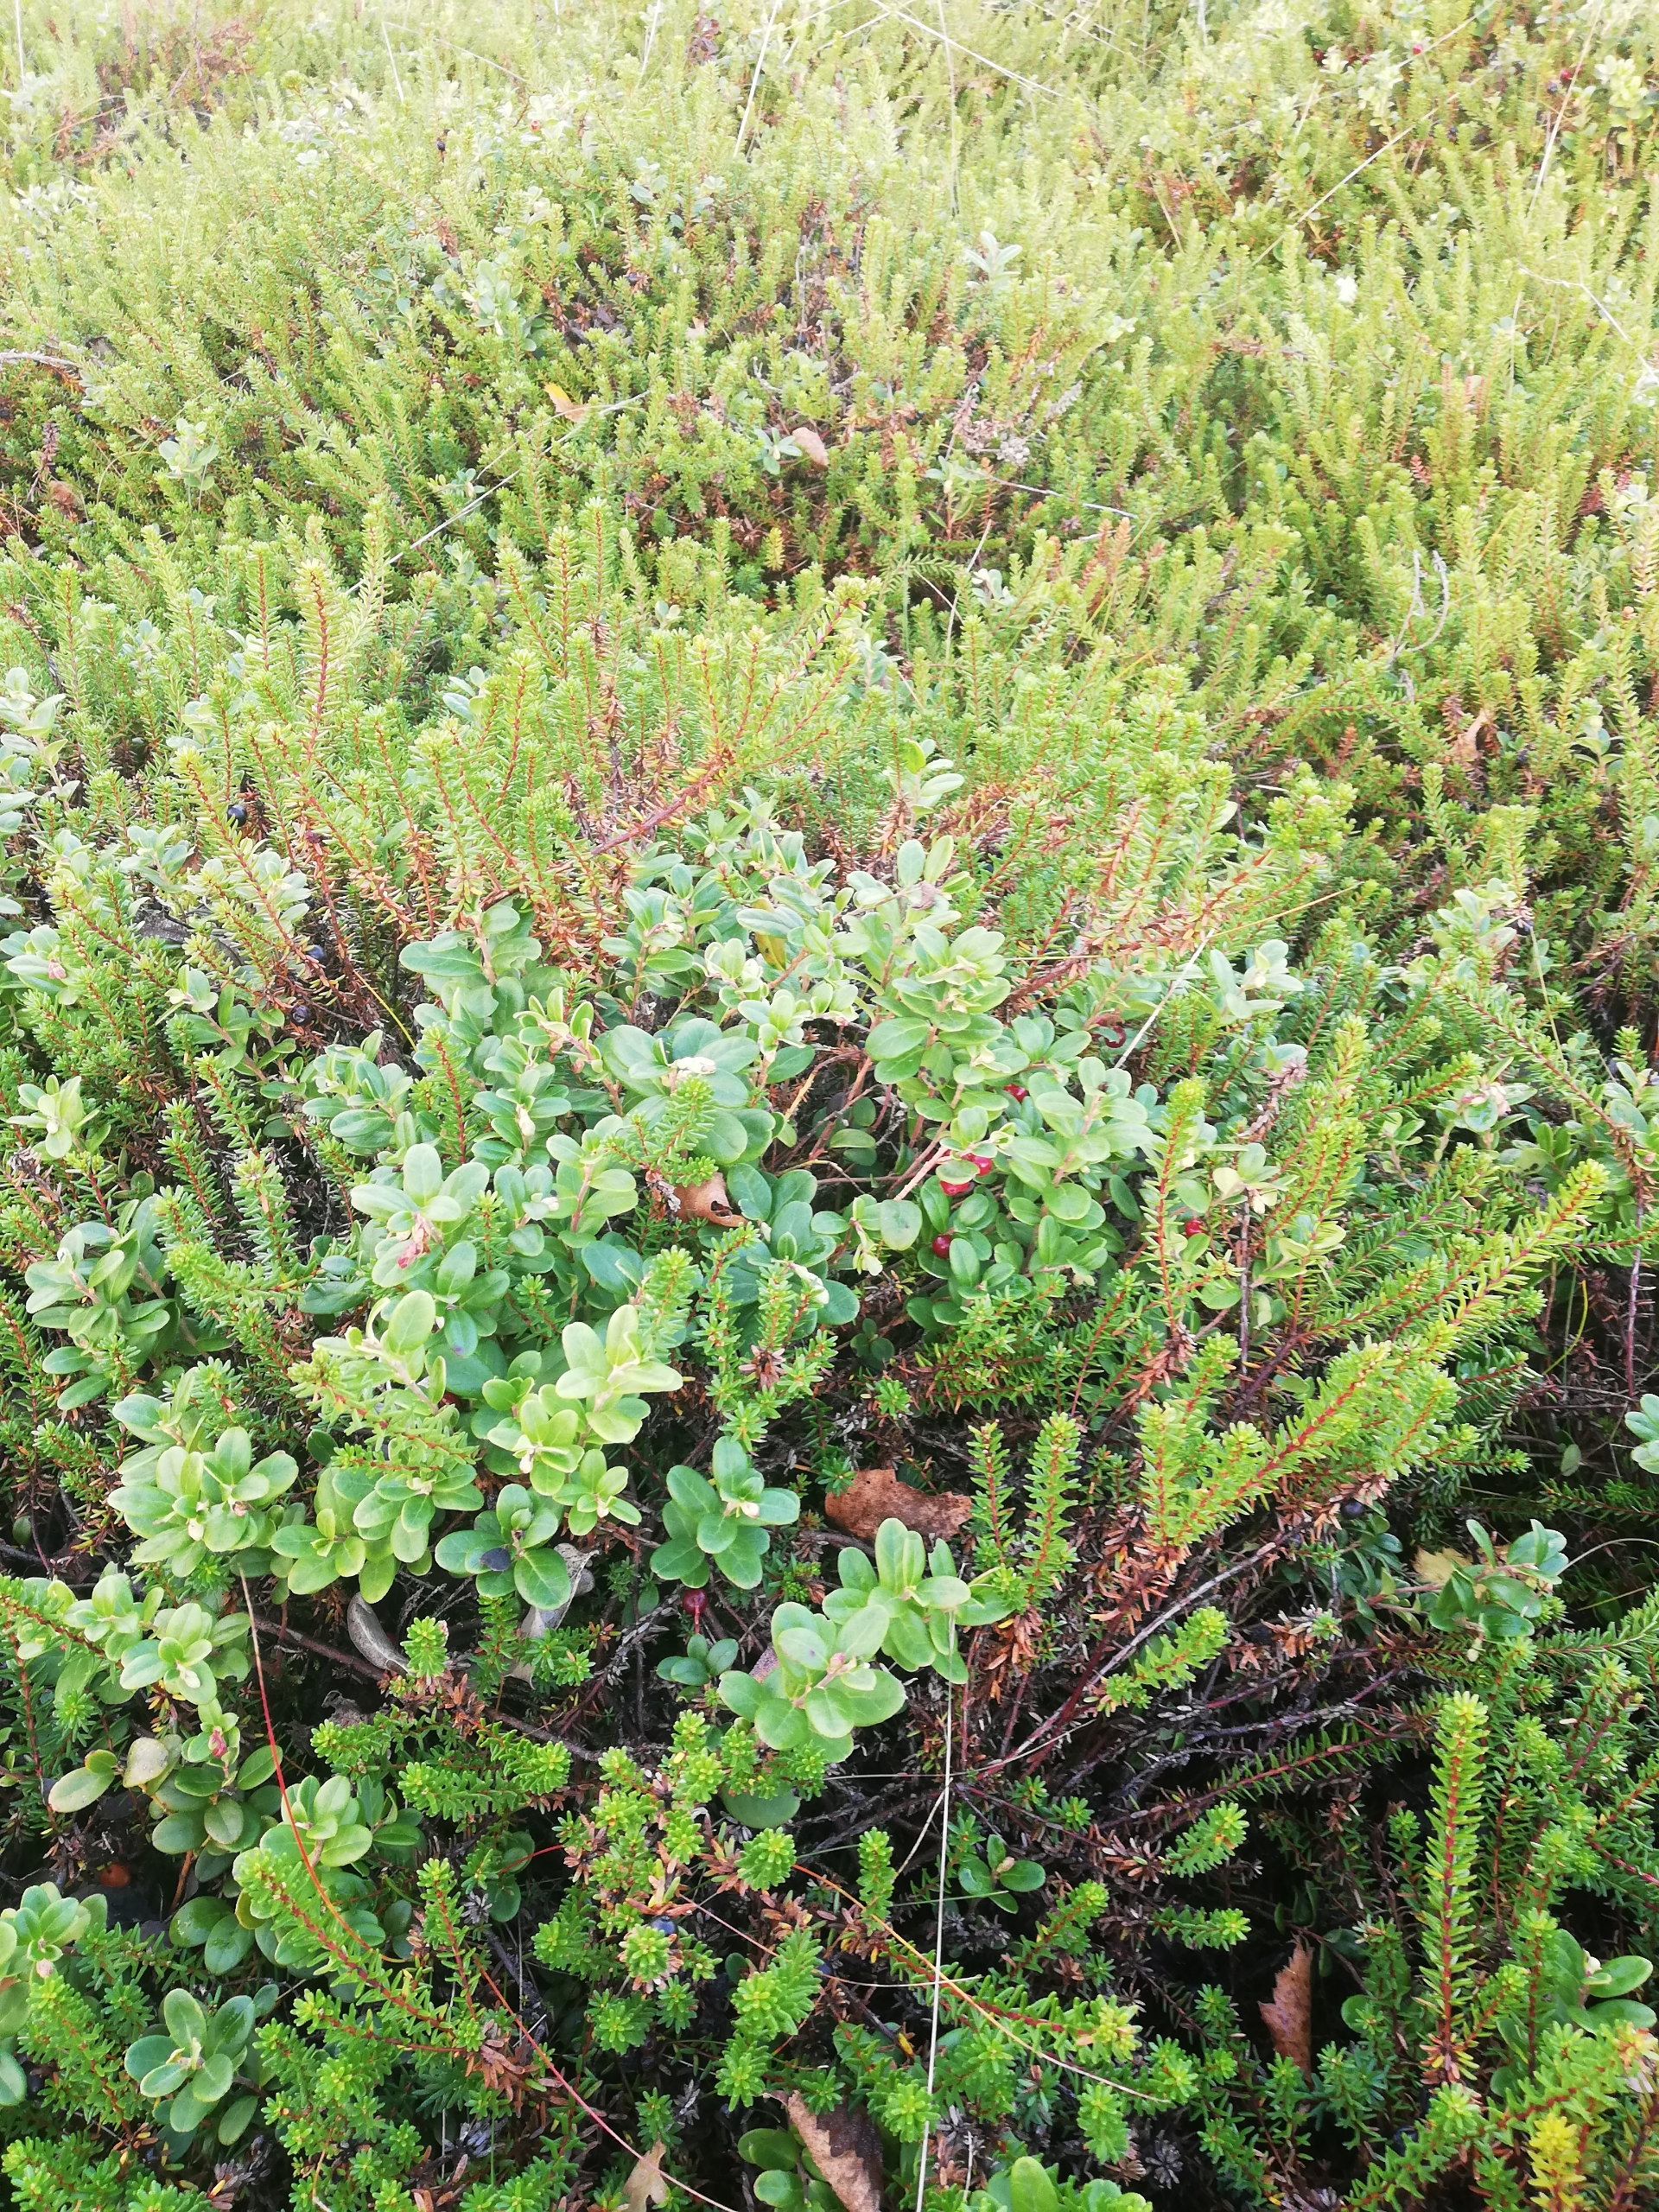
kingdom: Plantae
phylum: Tracheophyta
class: Magnoliopsida
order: Ericales
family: Ericaceae
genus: Vaccinium
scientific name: Vaccinium vitis-idaea
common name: Tyttebær
